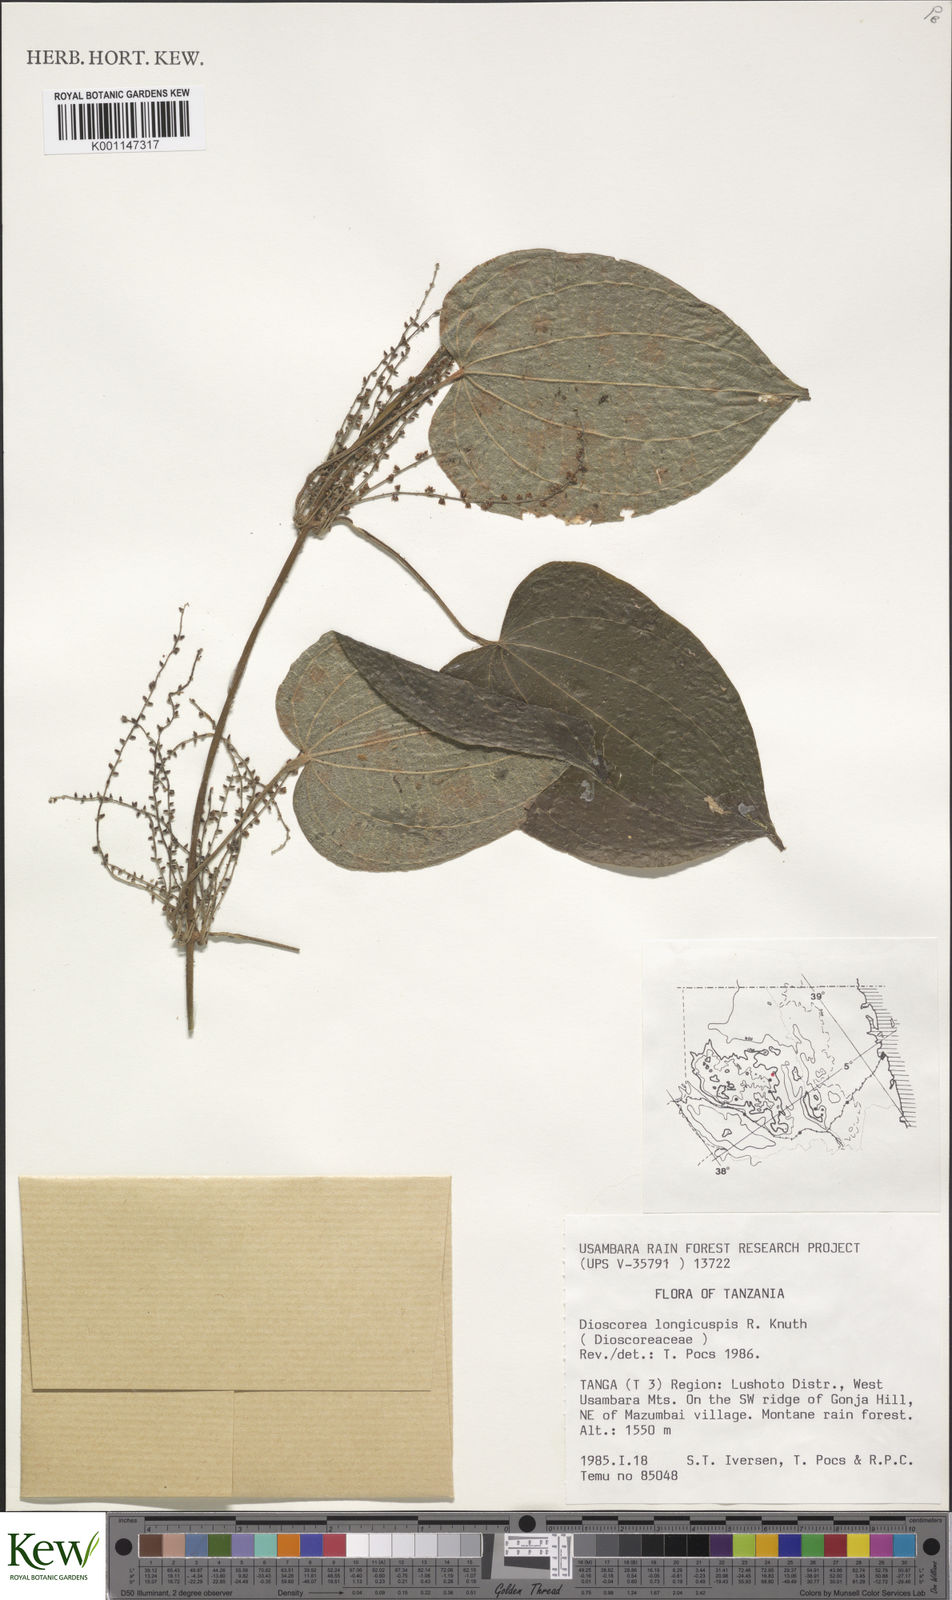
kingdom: Plantae
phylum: Tracheophyta
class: Liliopsida
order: Dioscoreales
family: Dioscoreaceae
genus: Dioscorea
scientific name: Dioscorea longicuspis
